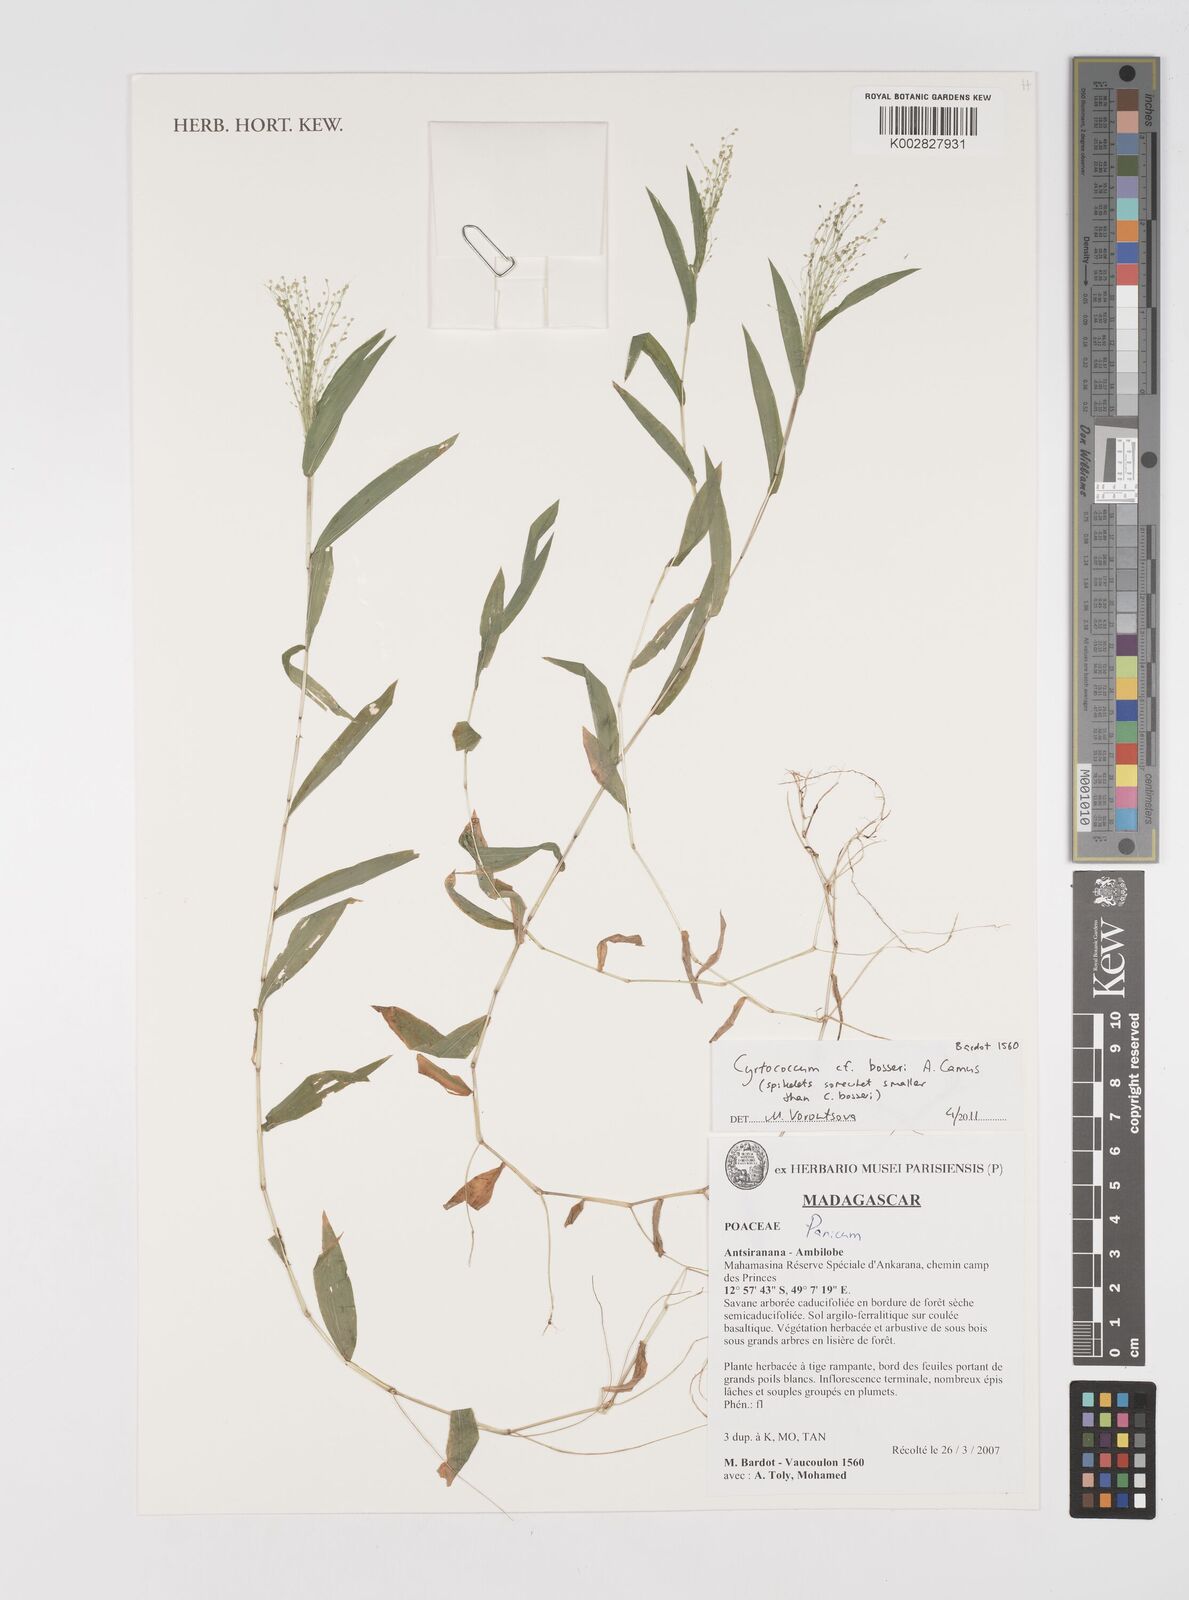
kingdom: Plantae
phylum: Tracheophyta
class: Liliopsida
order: Poales
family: Poaceae
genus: Cyrtococcum
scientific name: Cyrtococcum bosseri
